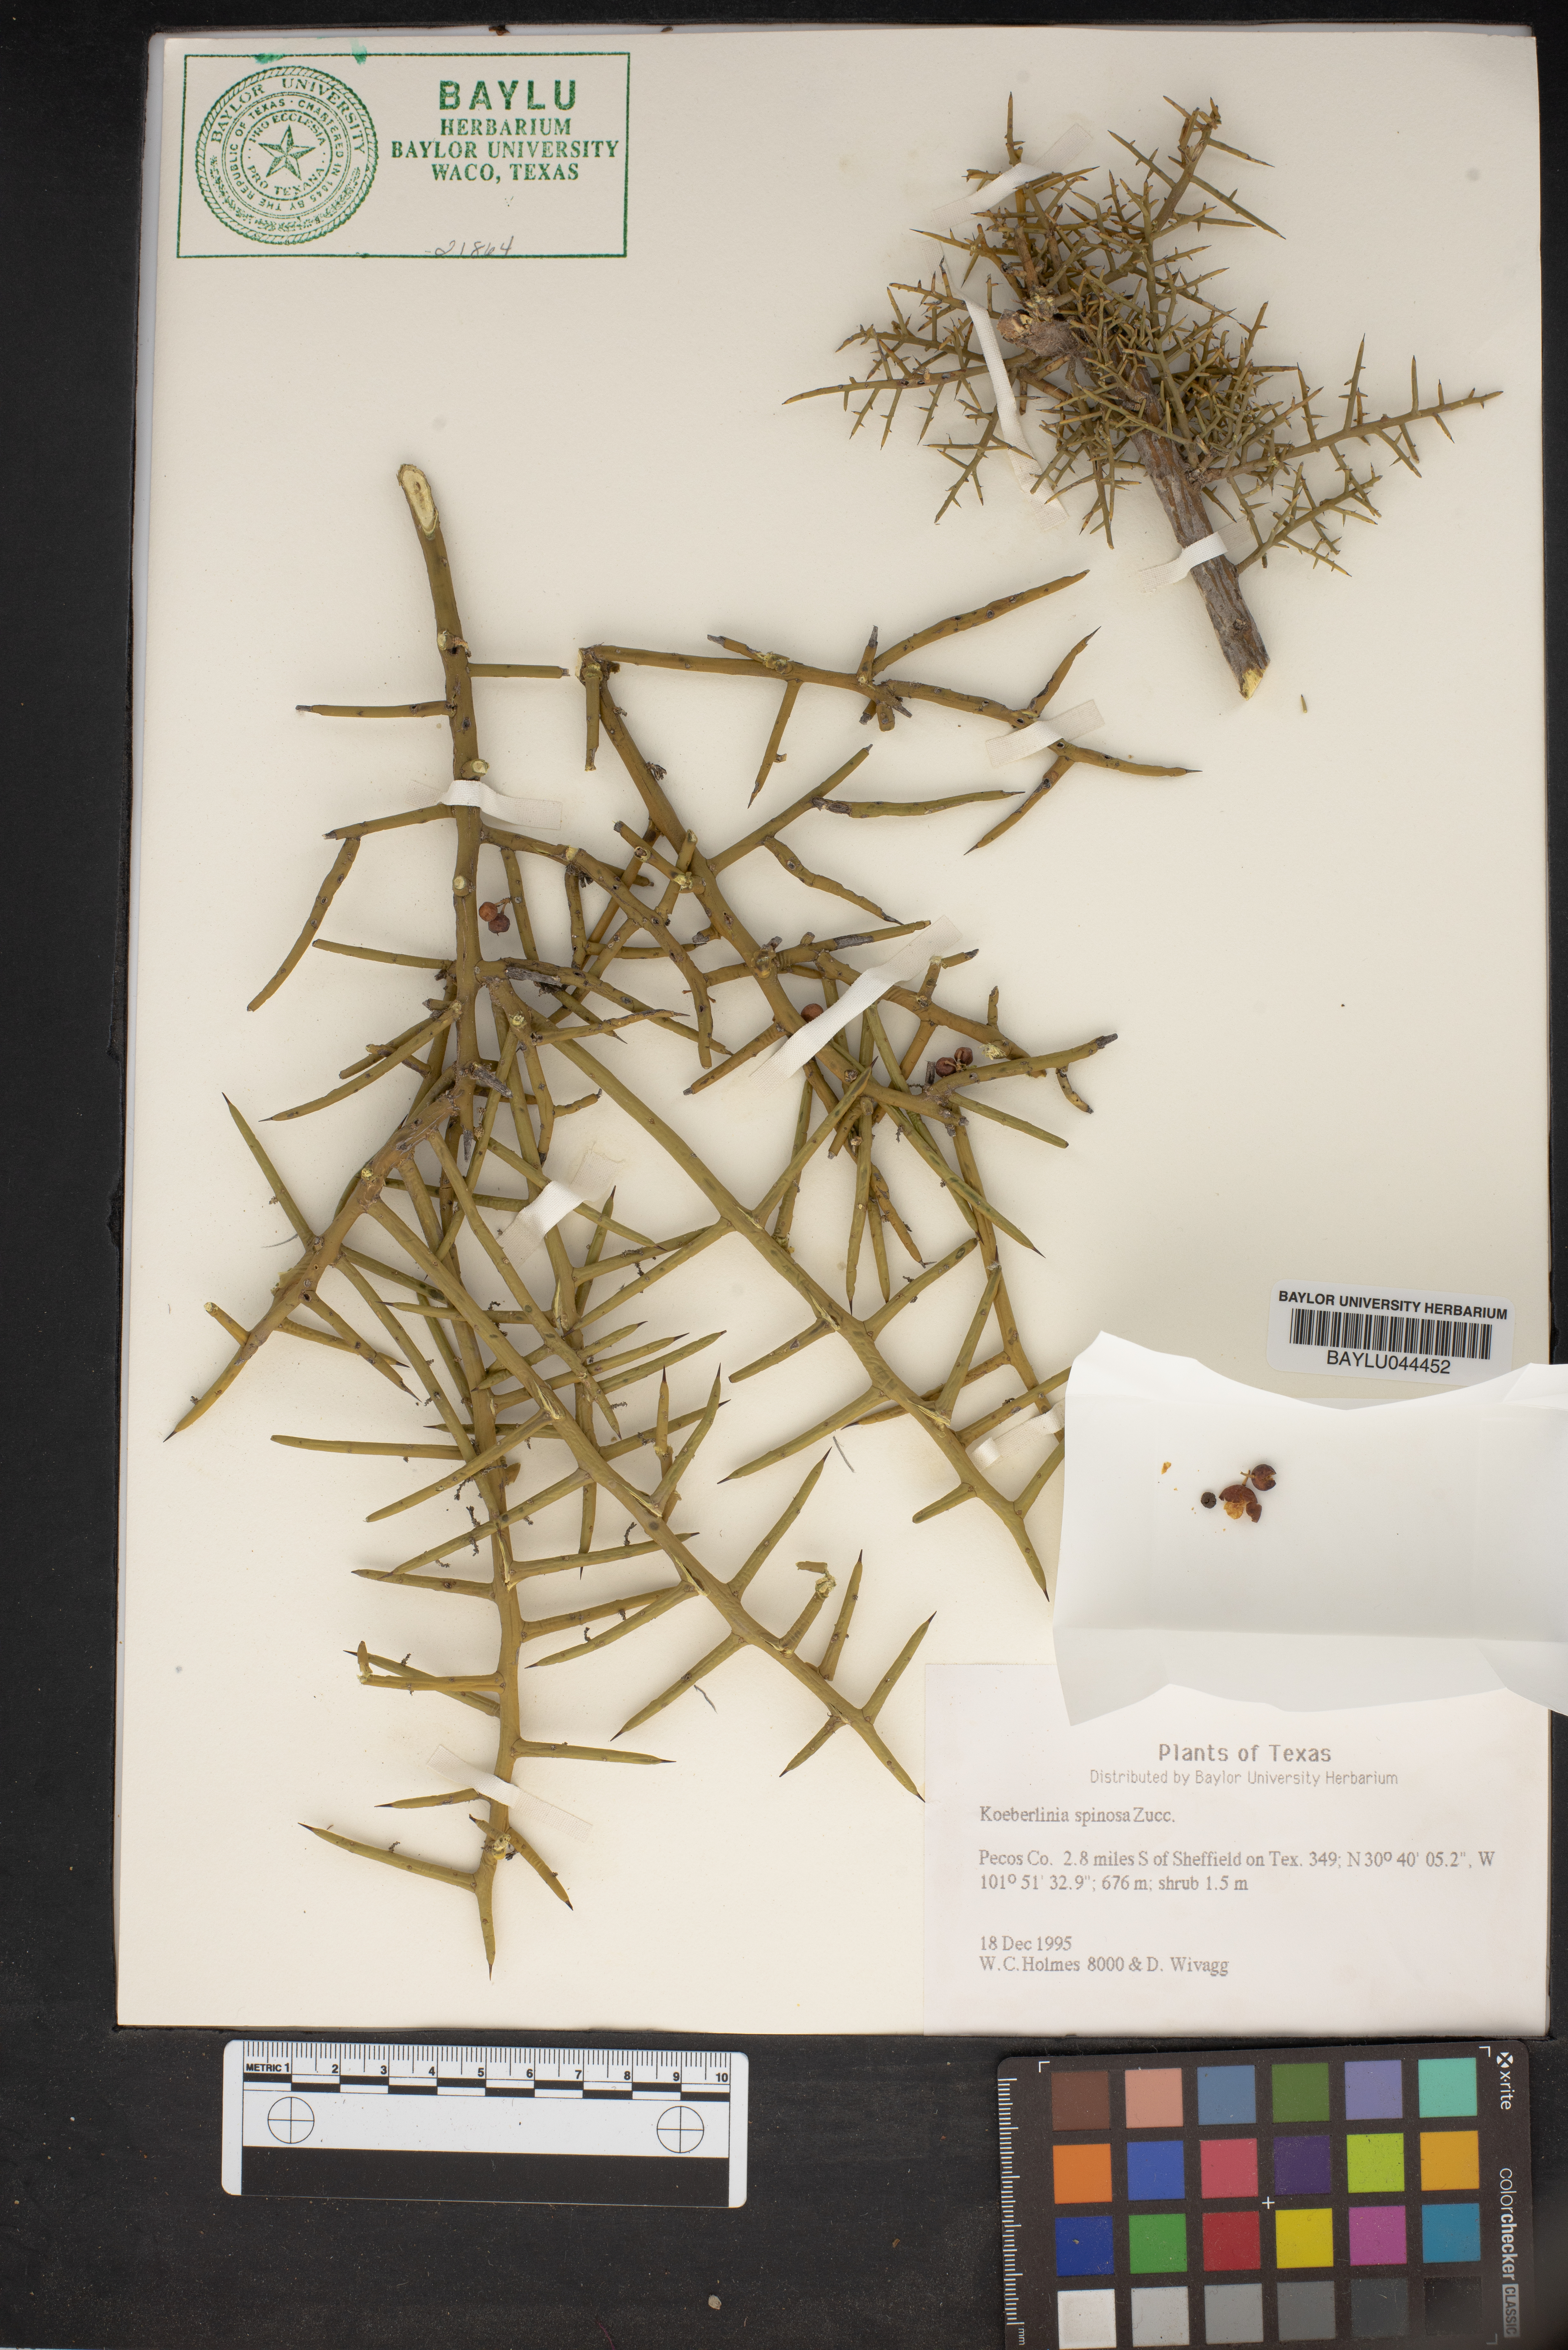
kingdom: Plantae
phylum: Tracheophyta
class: Magnoliopsida
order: Brassicales
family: Koeberliniaceae
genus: Koeberlinia
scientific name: Koeberlinia spinosa
